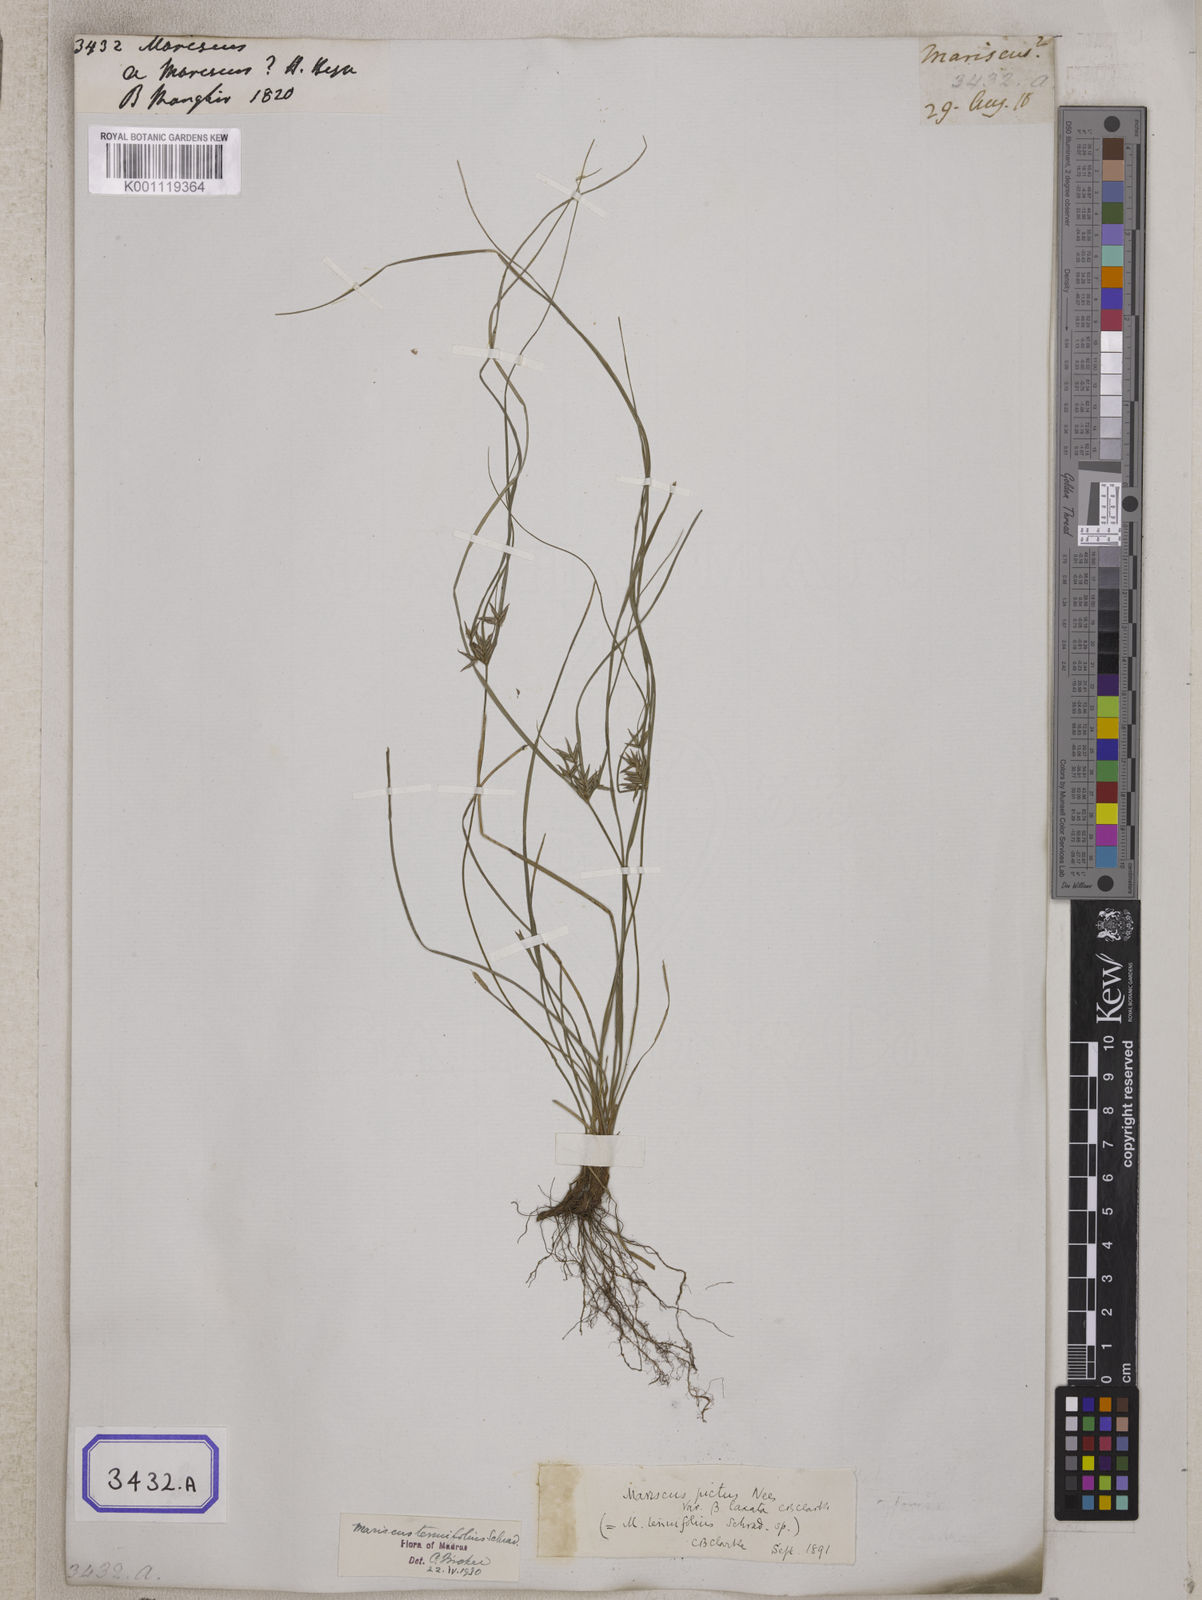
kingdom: Plantae
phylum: Tracheophyta
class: Liliopsida
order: Poales
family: Cyperaceae
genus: Mariscus
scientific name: Mariscus
